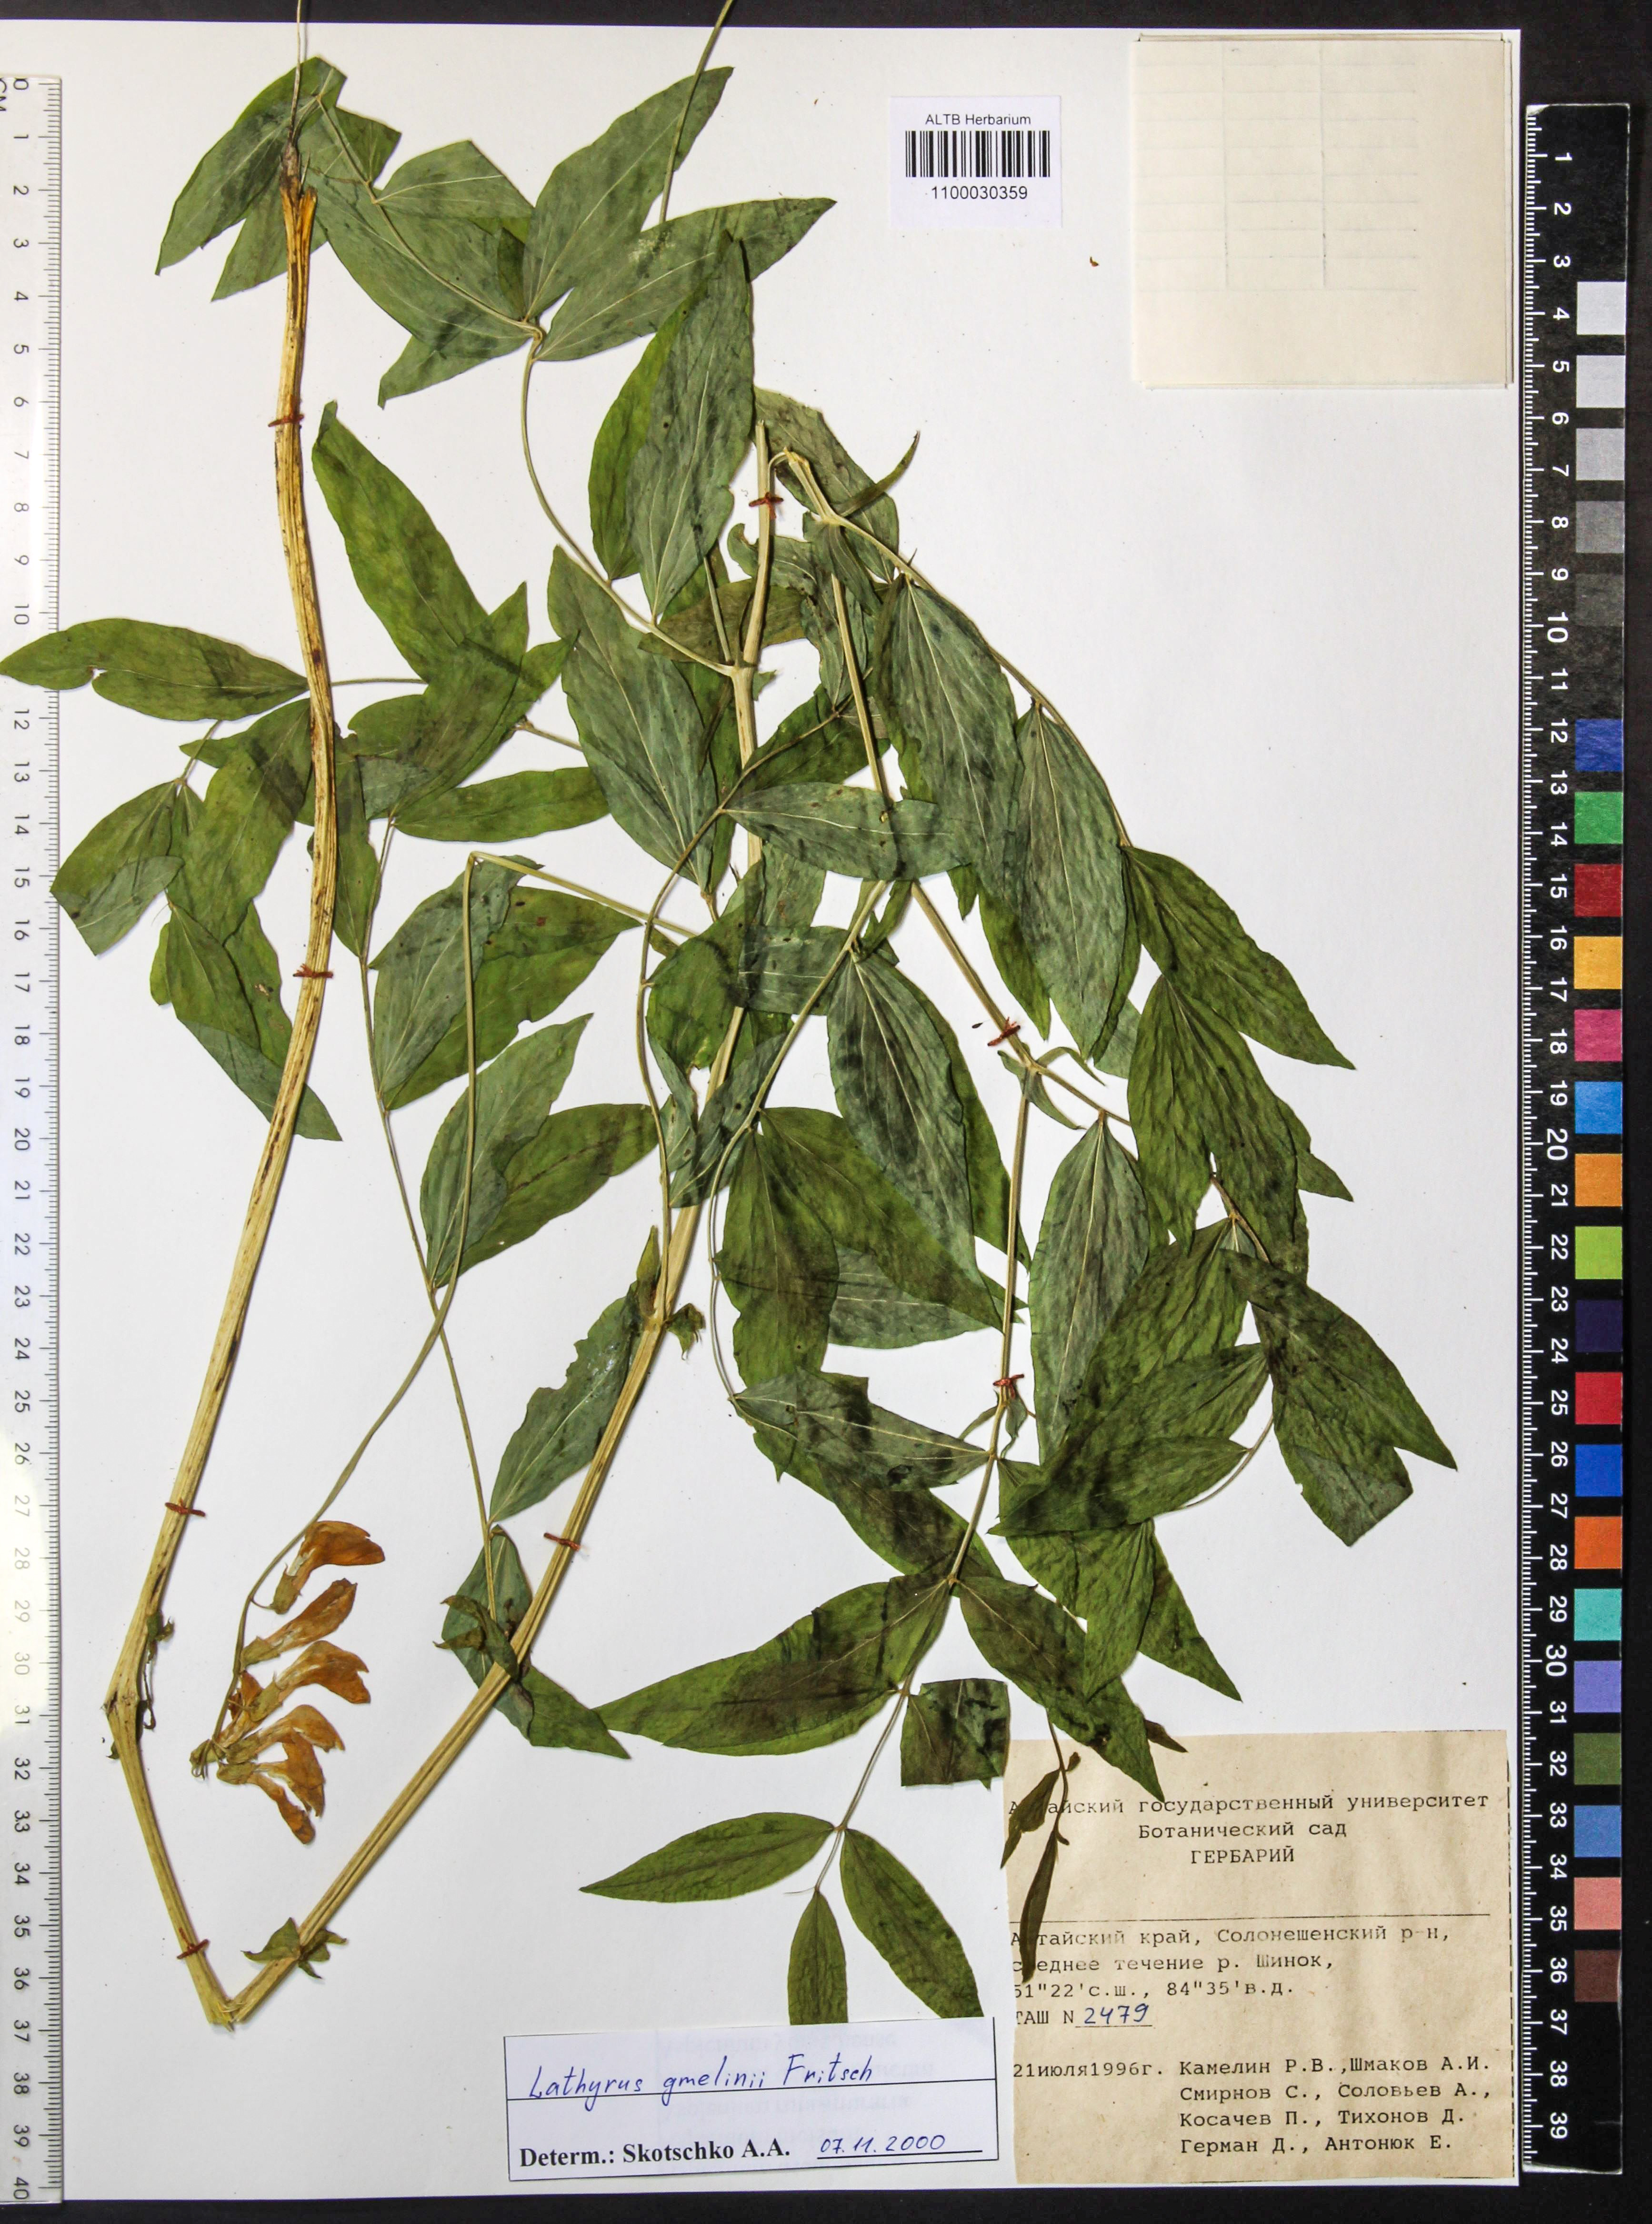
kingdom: Plantae
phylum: Tracheophyta
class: Magnoliopsida
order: Fabales
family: Fabaceae
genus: Lathyrus
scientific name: Lathyrus gmelinii
